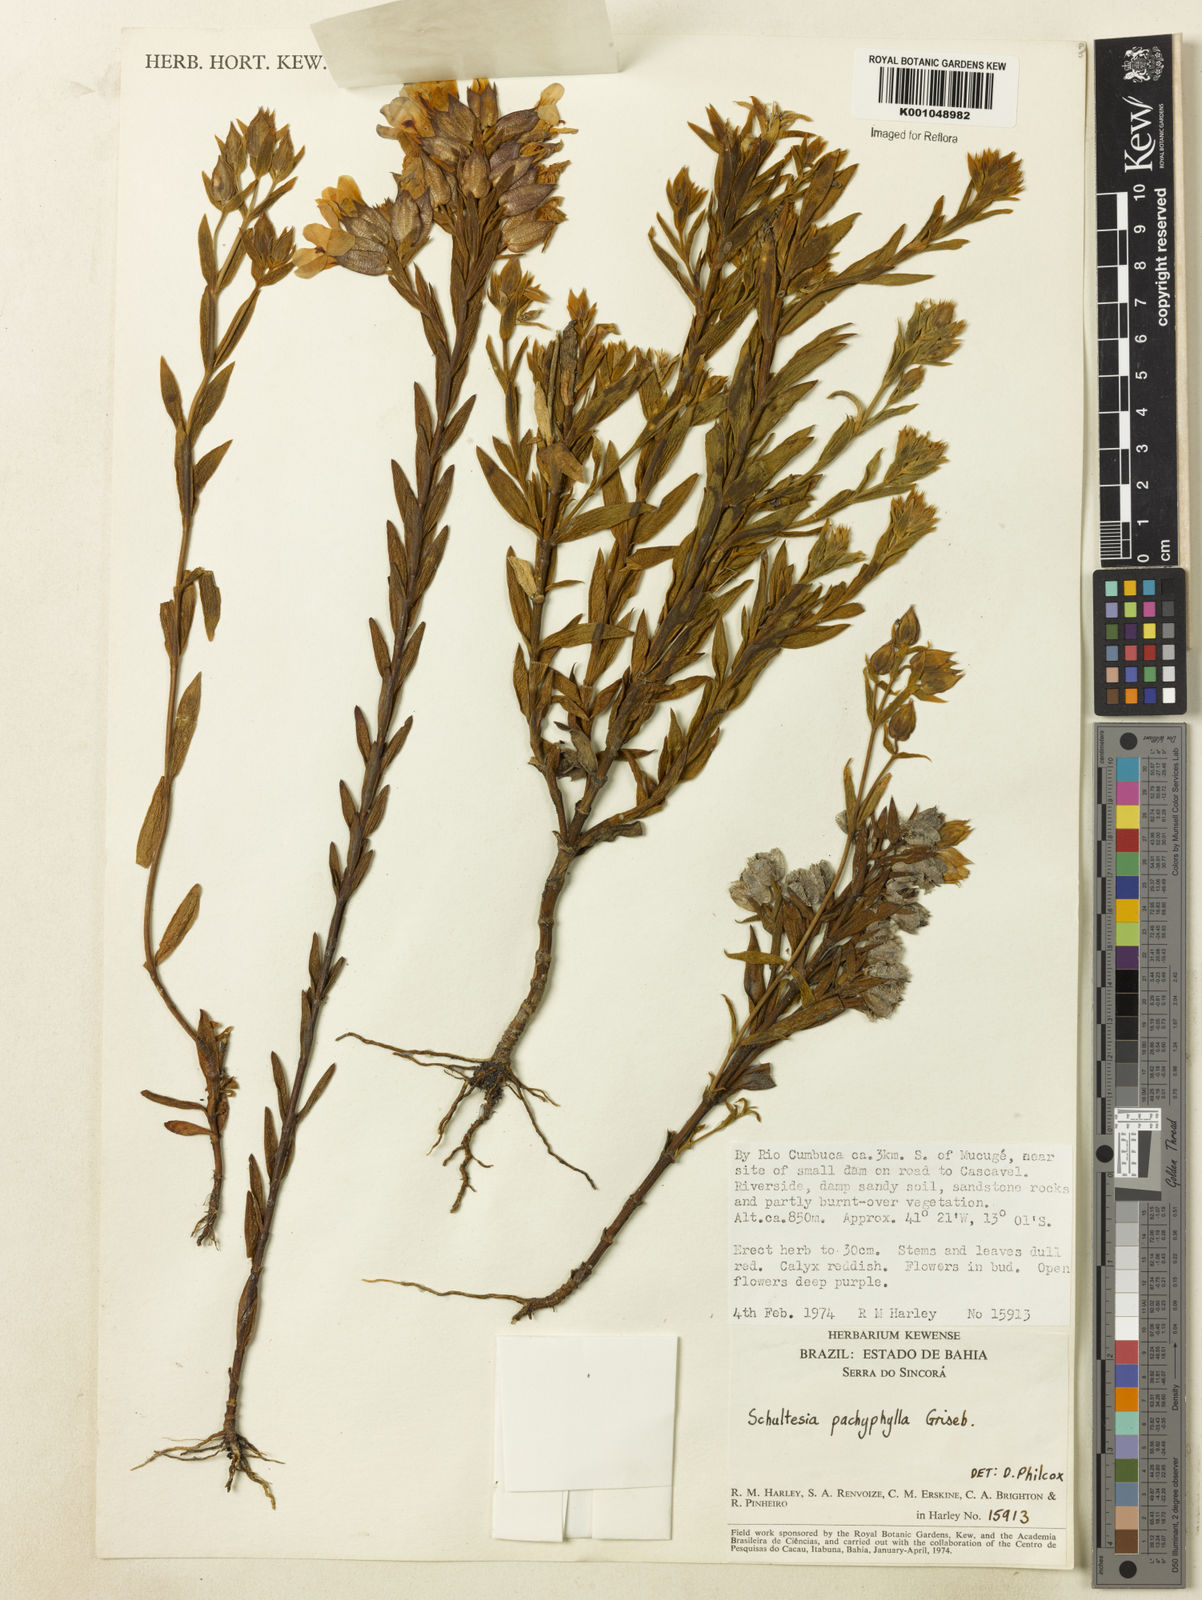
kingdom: Plantae
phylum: Tracheophyta
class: Magnoliopsida
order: Gentianales
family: Gentianaceae
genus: Schultesia
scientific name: Schultesia pachyphylla
